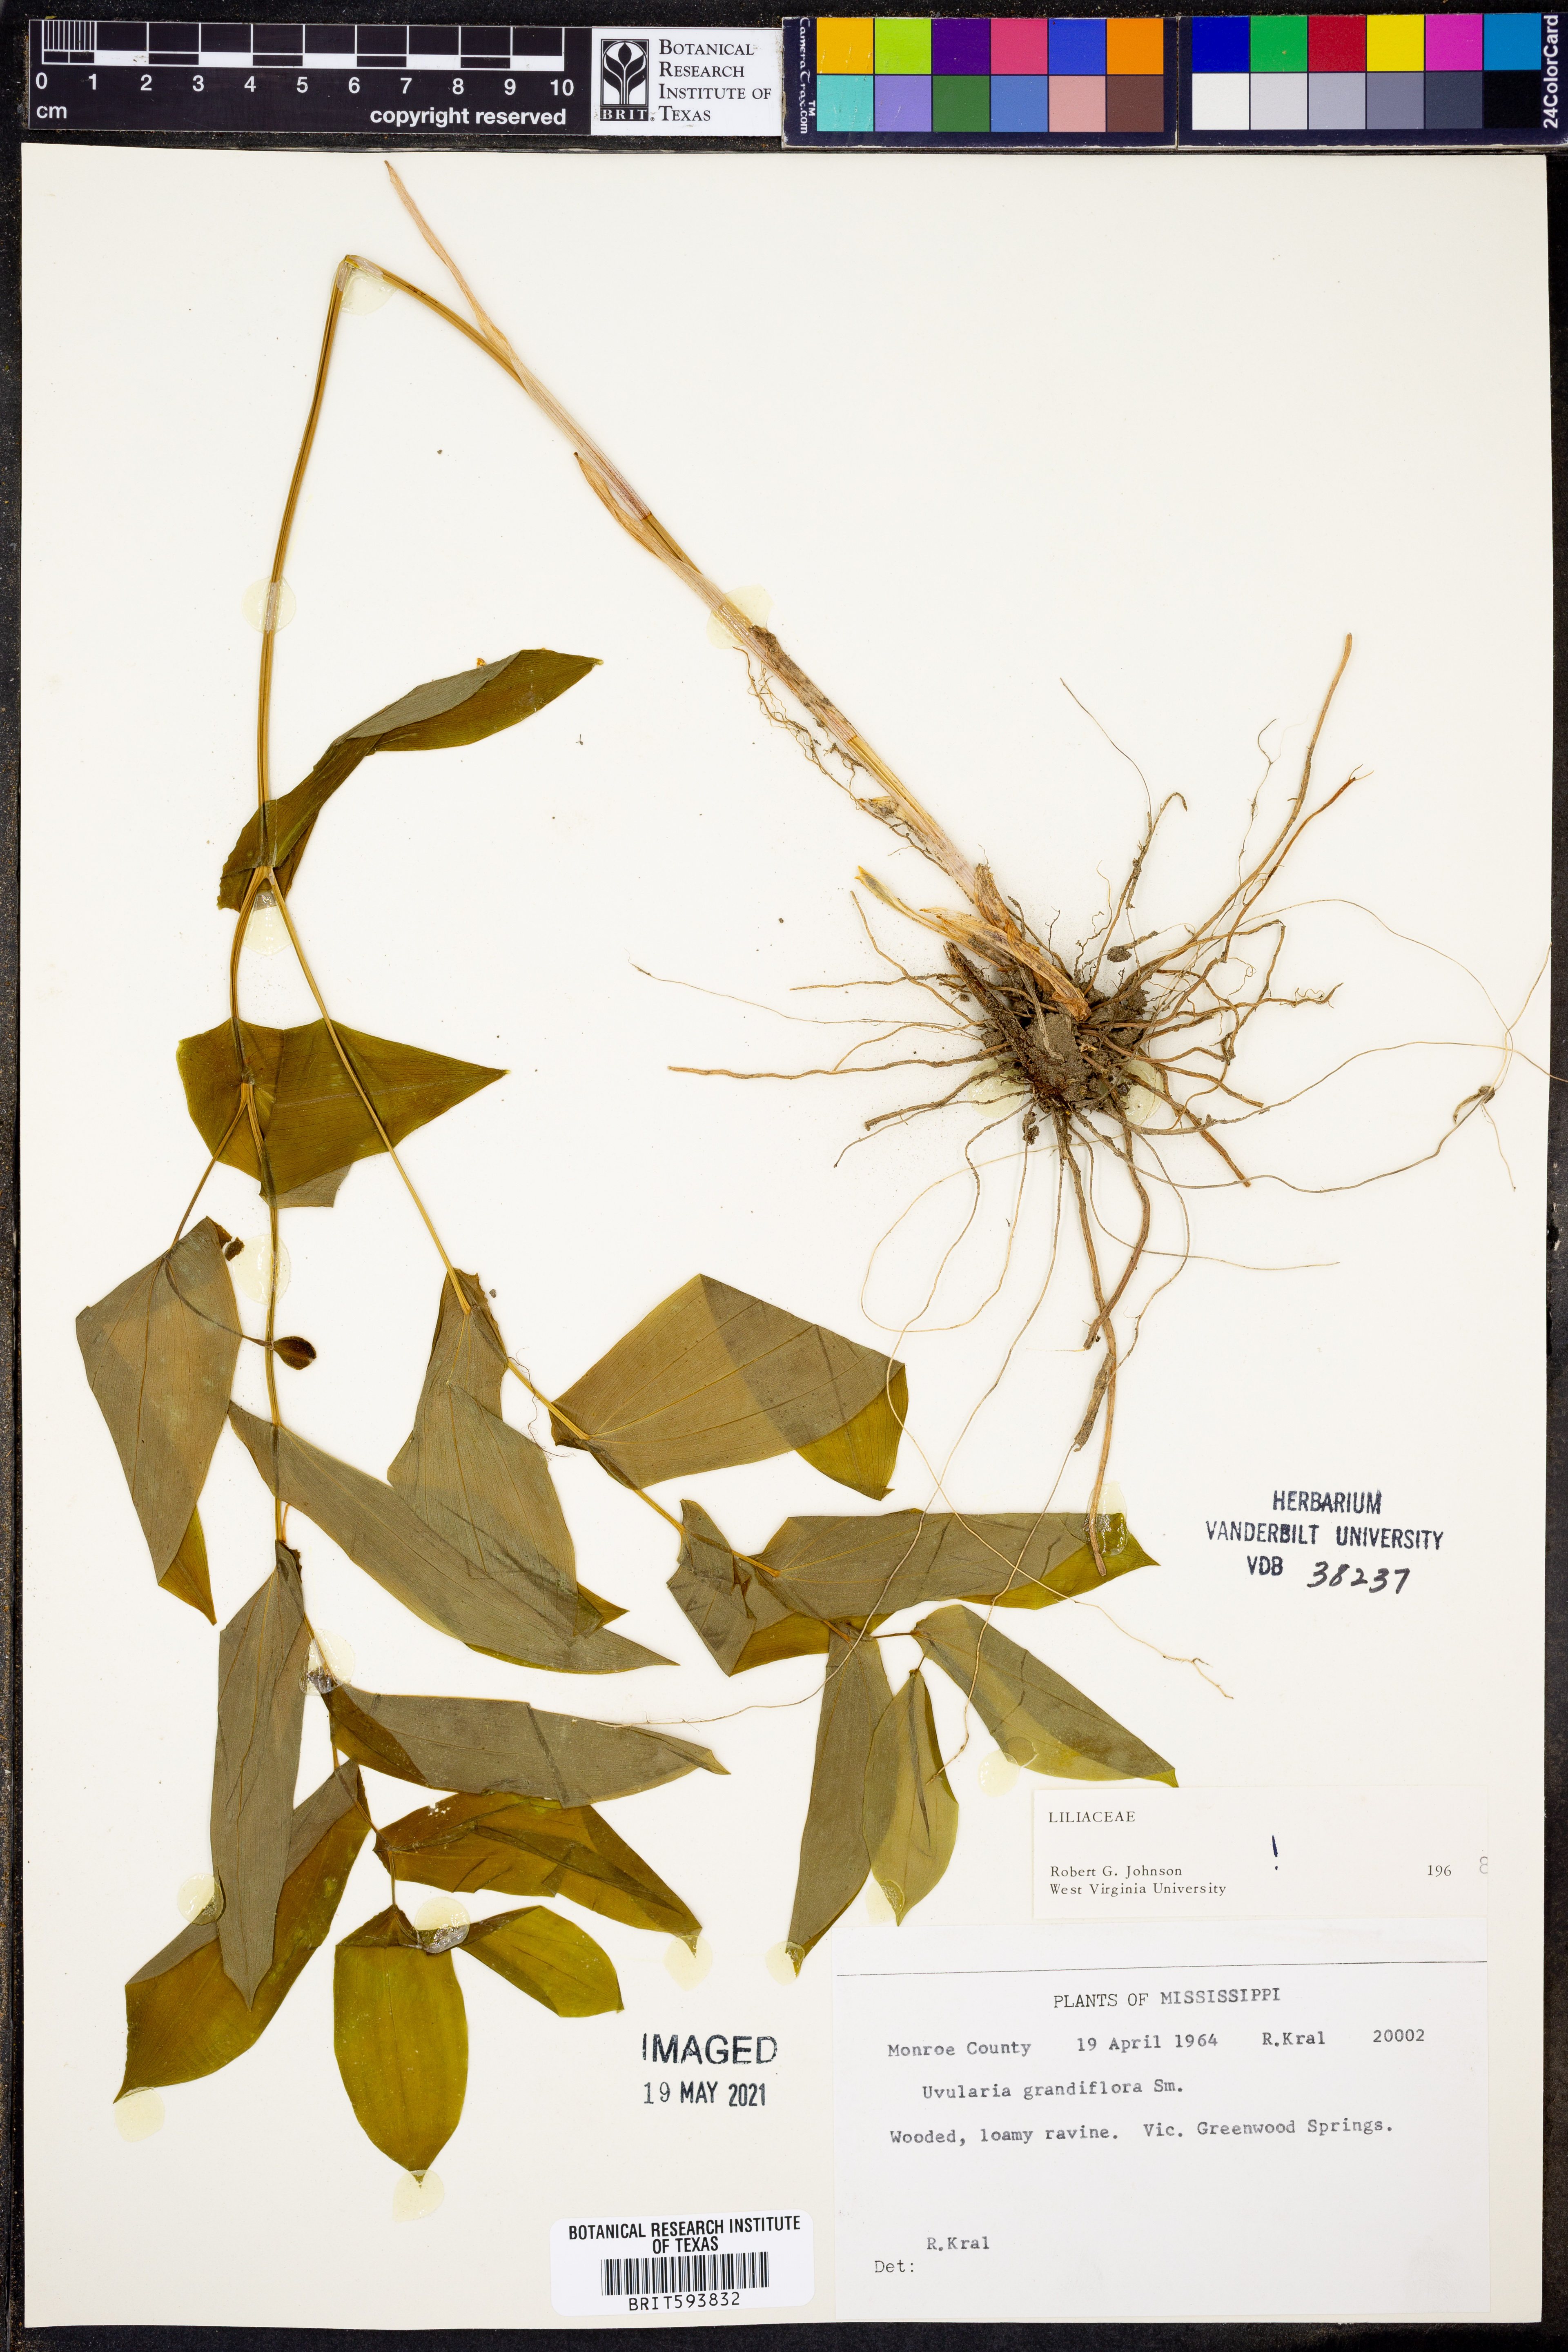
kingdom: Plantae
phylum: Tracheophyta
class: Liliopsida
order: Liliales
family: Colchicaceae
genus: Uvularia
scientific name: Uvularia grandiflora
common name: Bellwort
